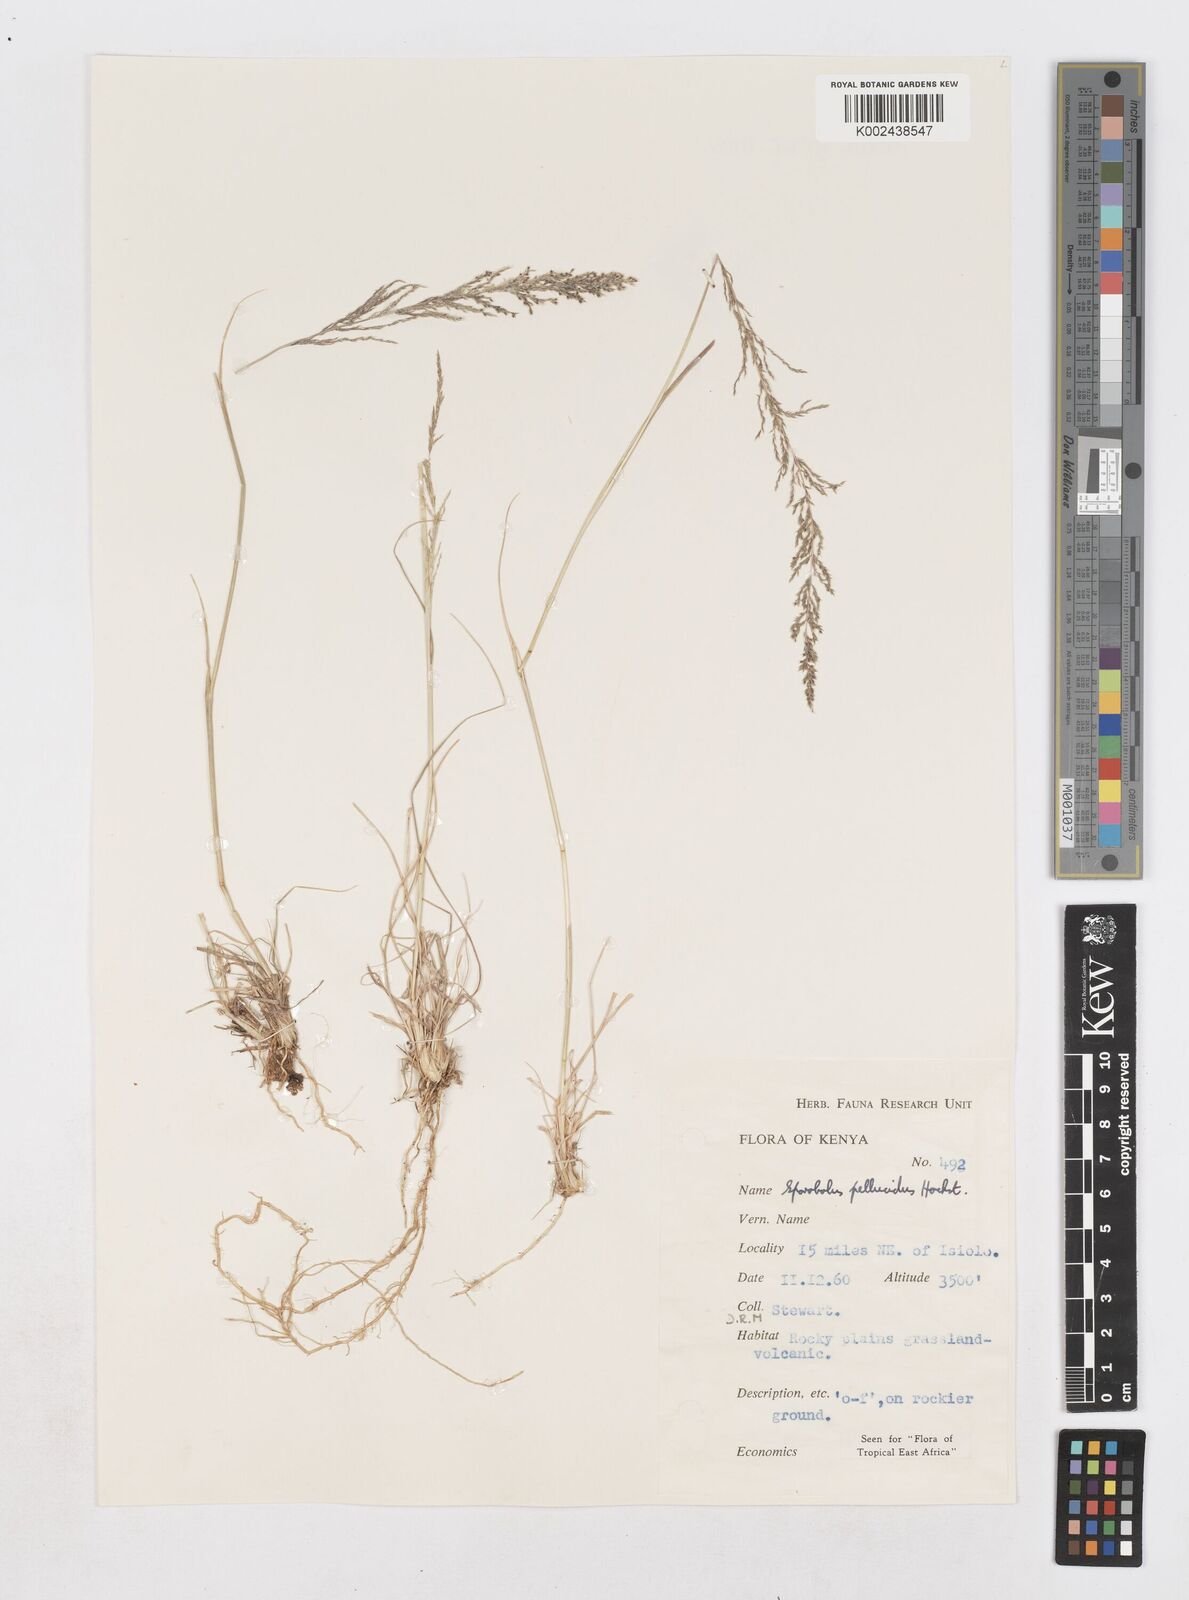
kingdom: Plantae
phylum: Tracheophyta
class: Liliopsida
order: Poales
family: Poaceae
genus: Sporobolus
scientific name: Sporobolus pellucidus
